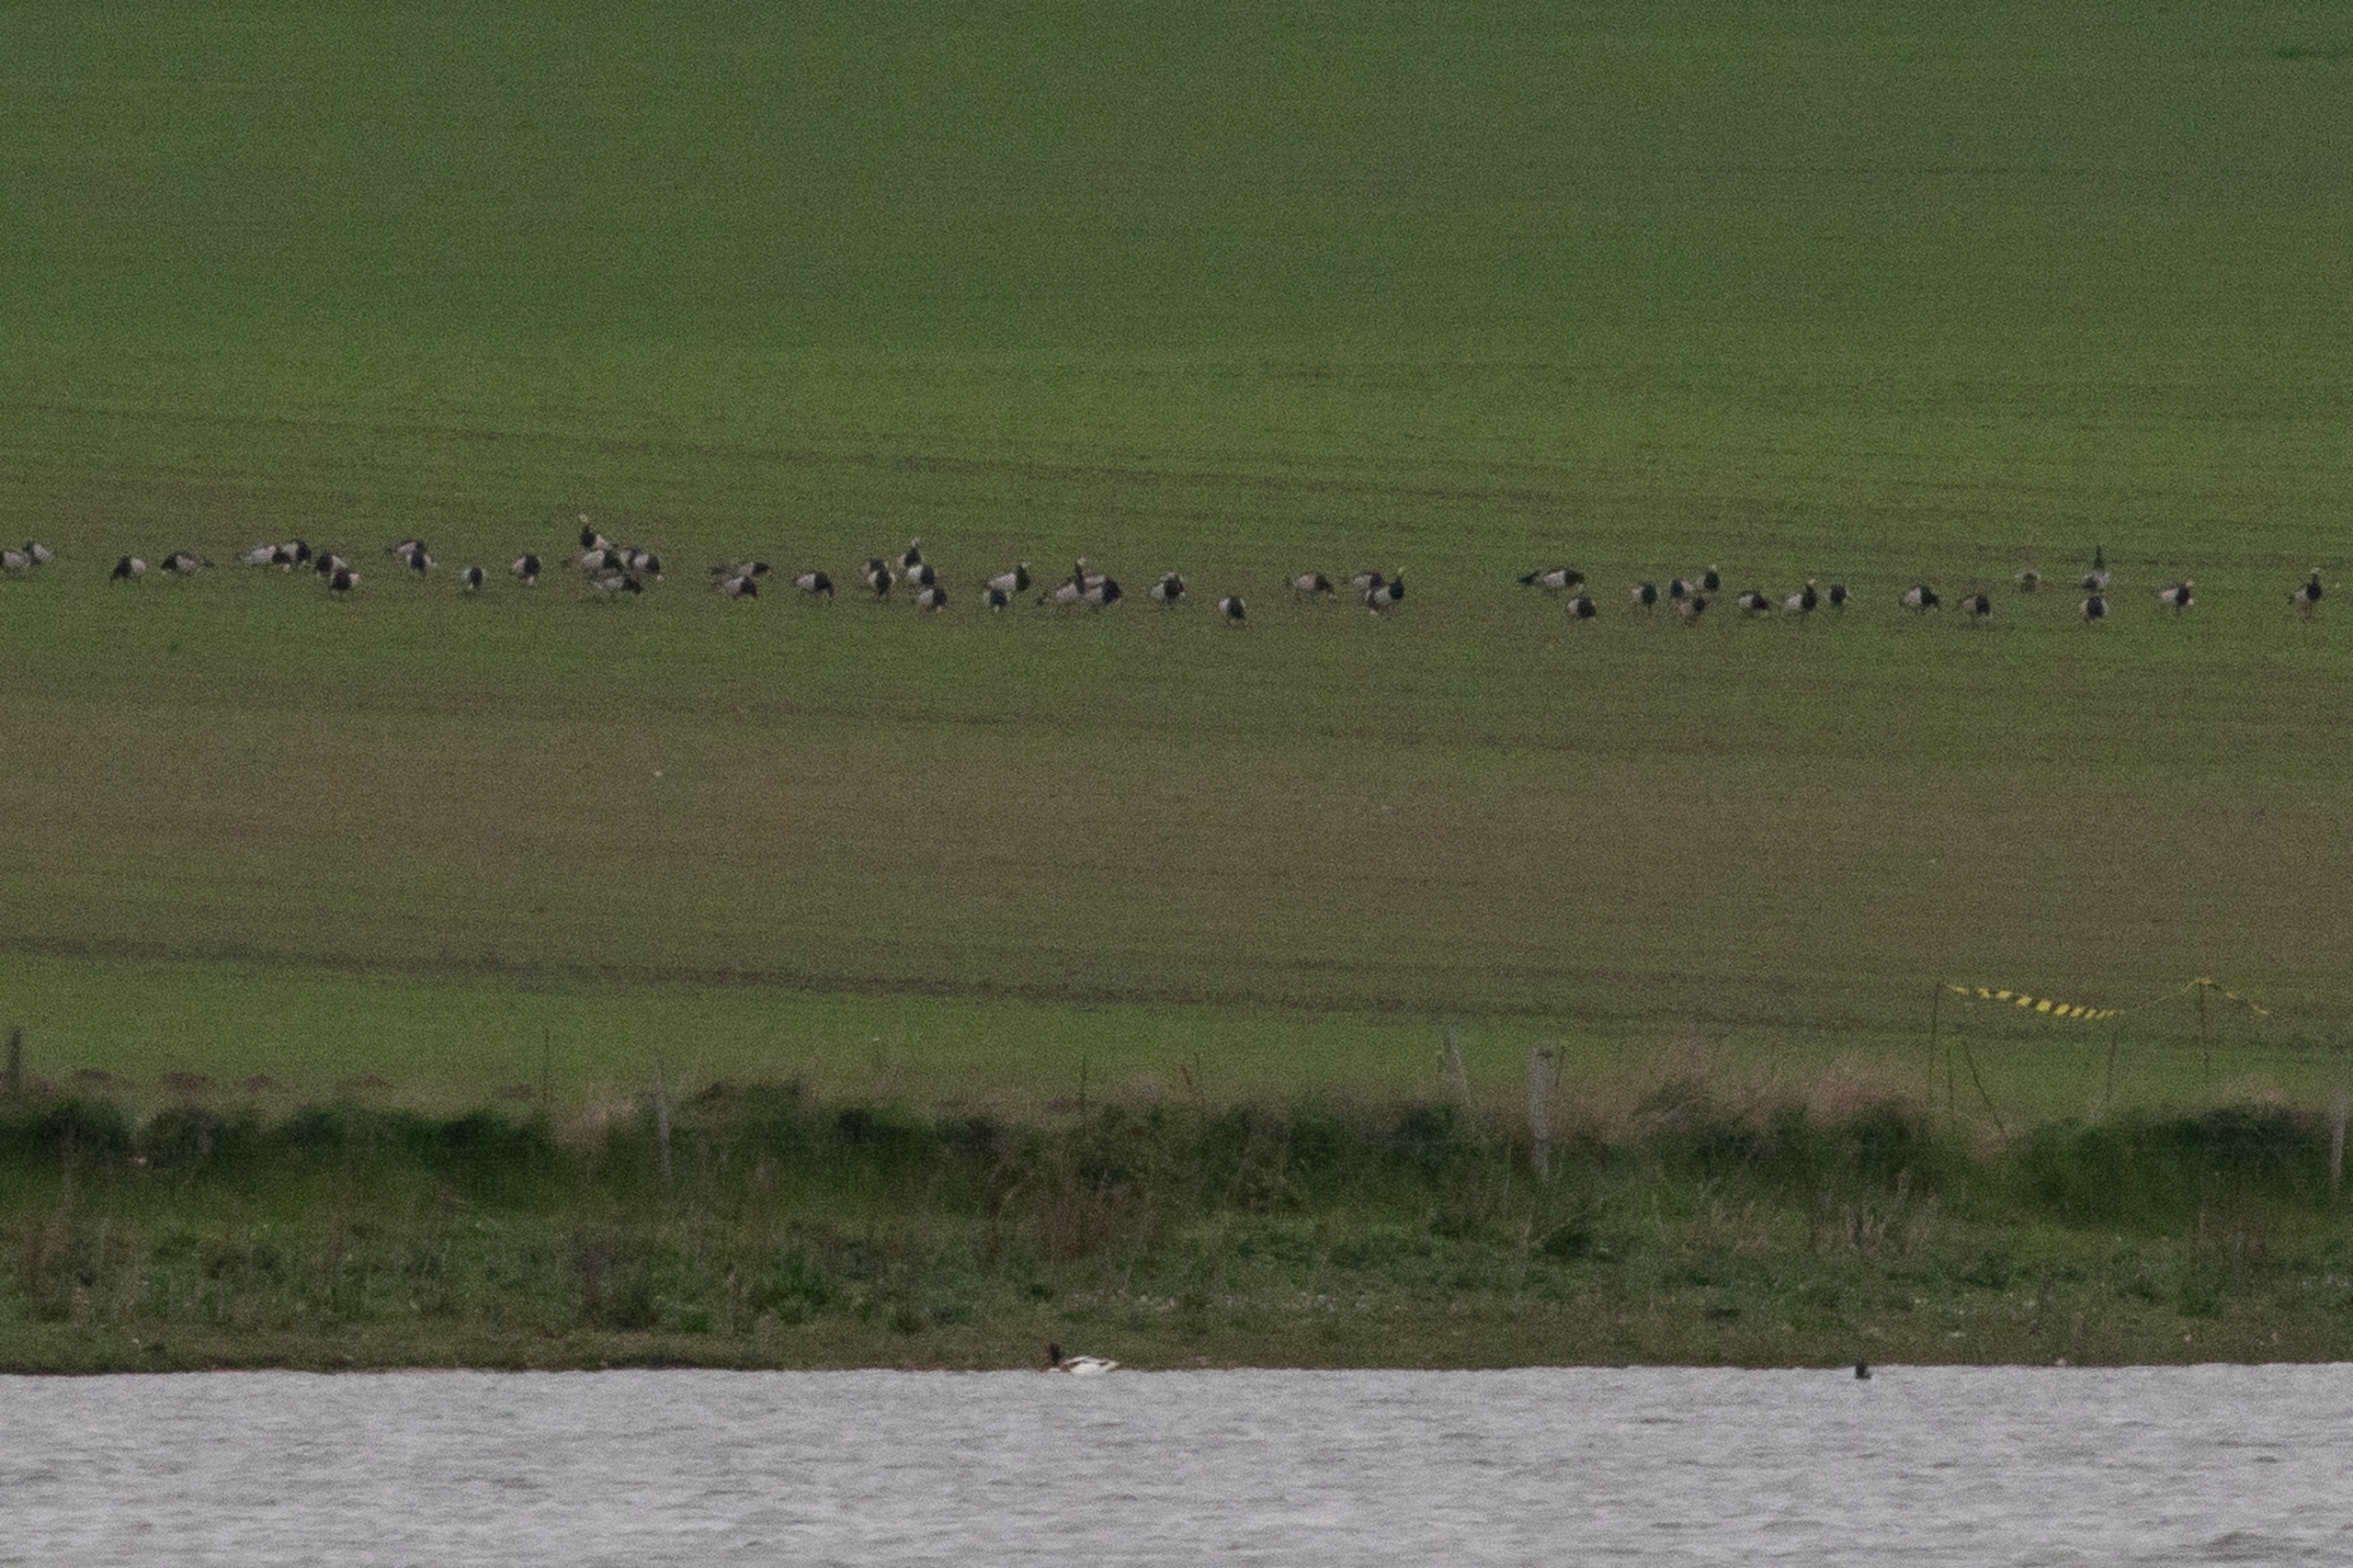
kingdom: Animalia
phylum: Chordata
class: Aves
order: Anseriformes
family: Anatidae
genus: Branta
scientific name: Branta leucopsis
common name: Bramgås
